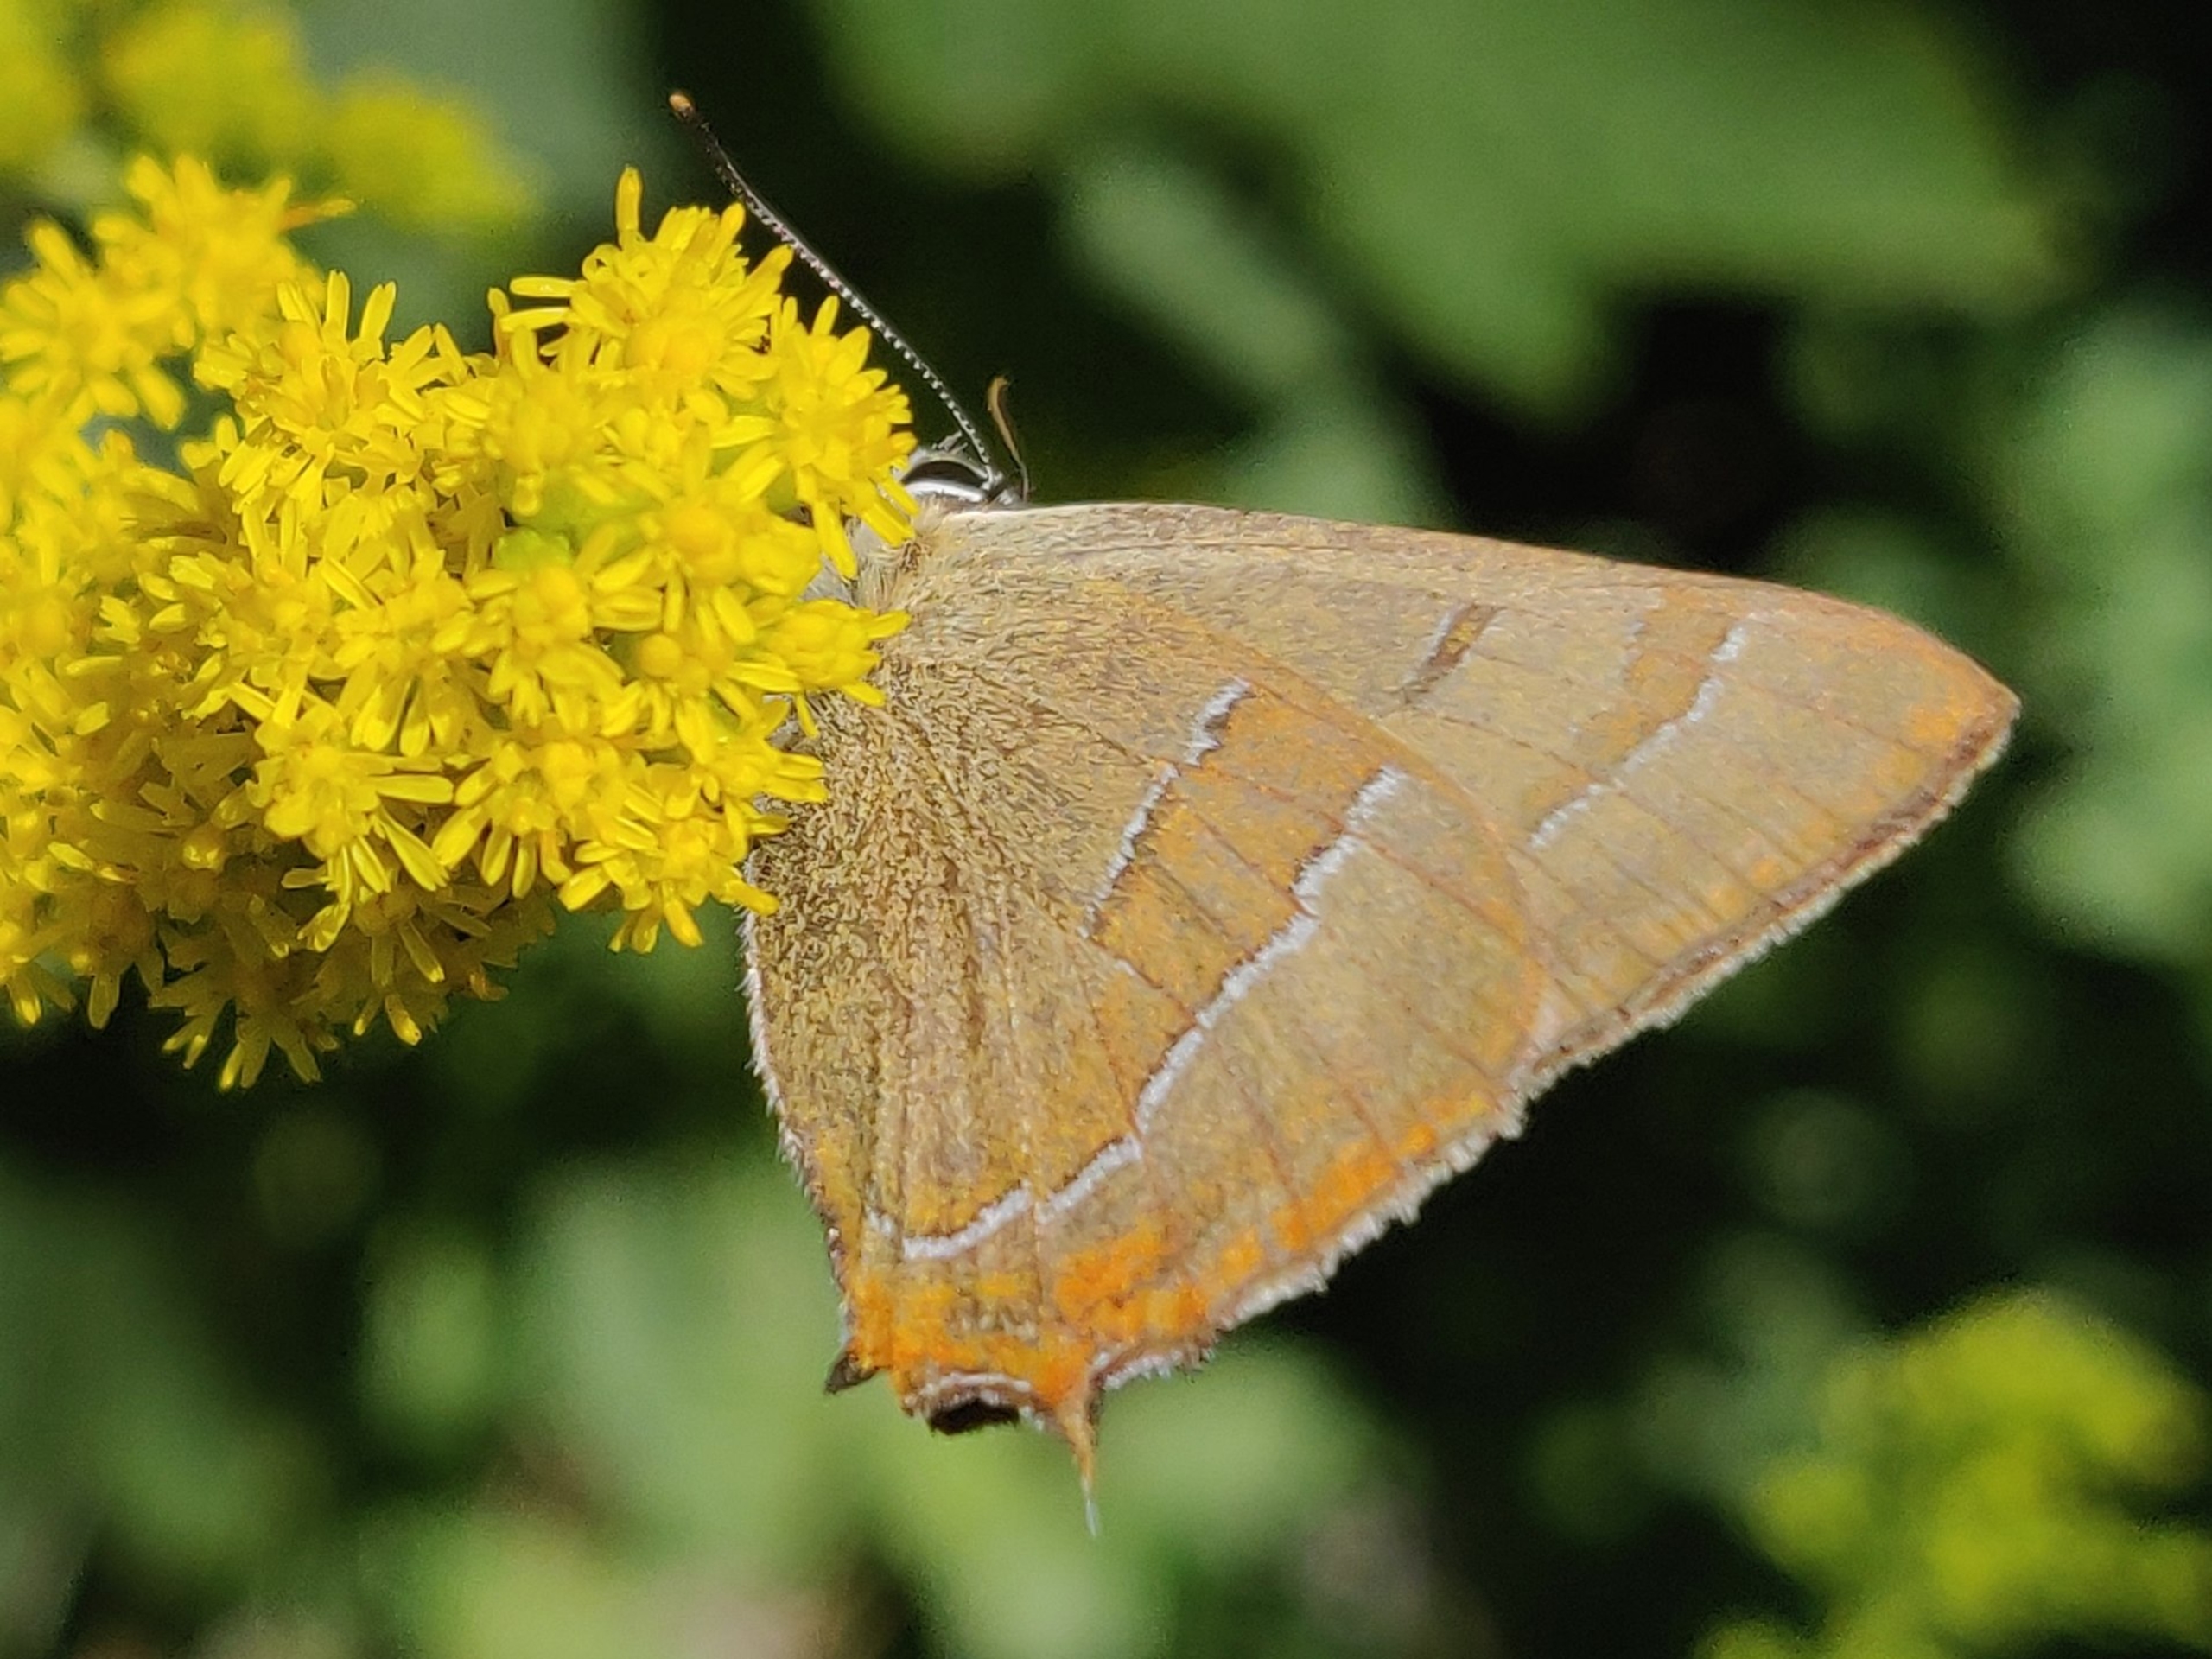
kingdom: Animalia
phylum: Arthropoda
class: Insecta
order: Lepidoptera
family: Lycaenidae
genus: Thecla
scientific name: Thecla betulae
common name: Guldhale
